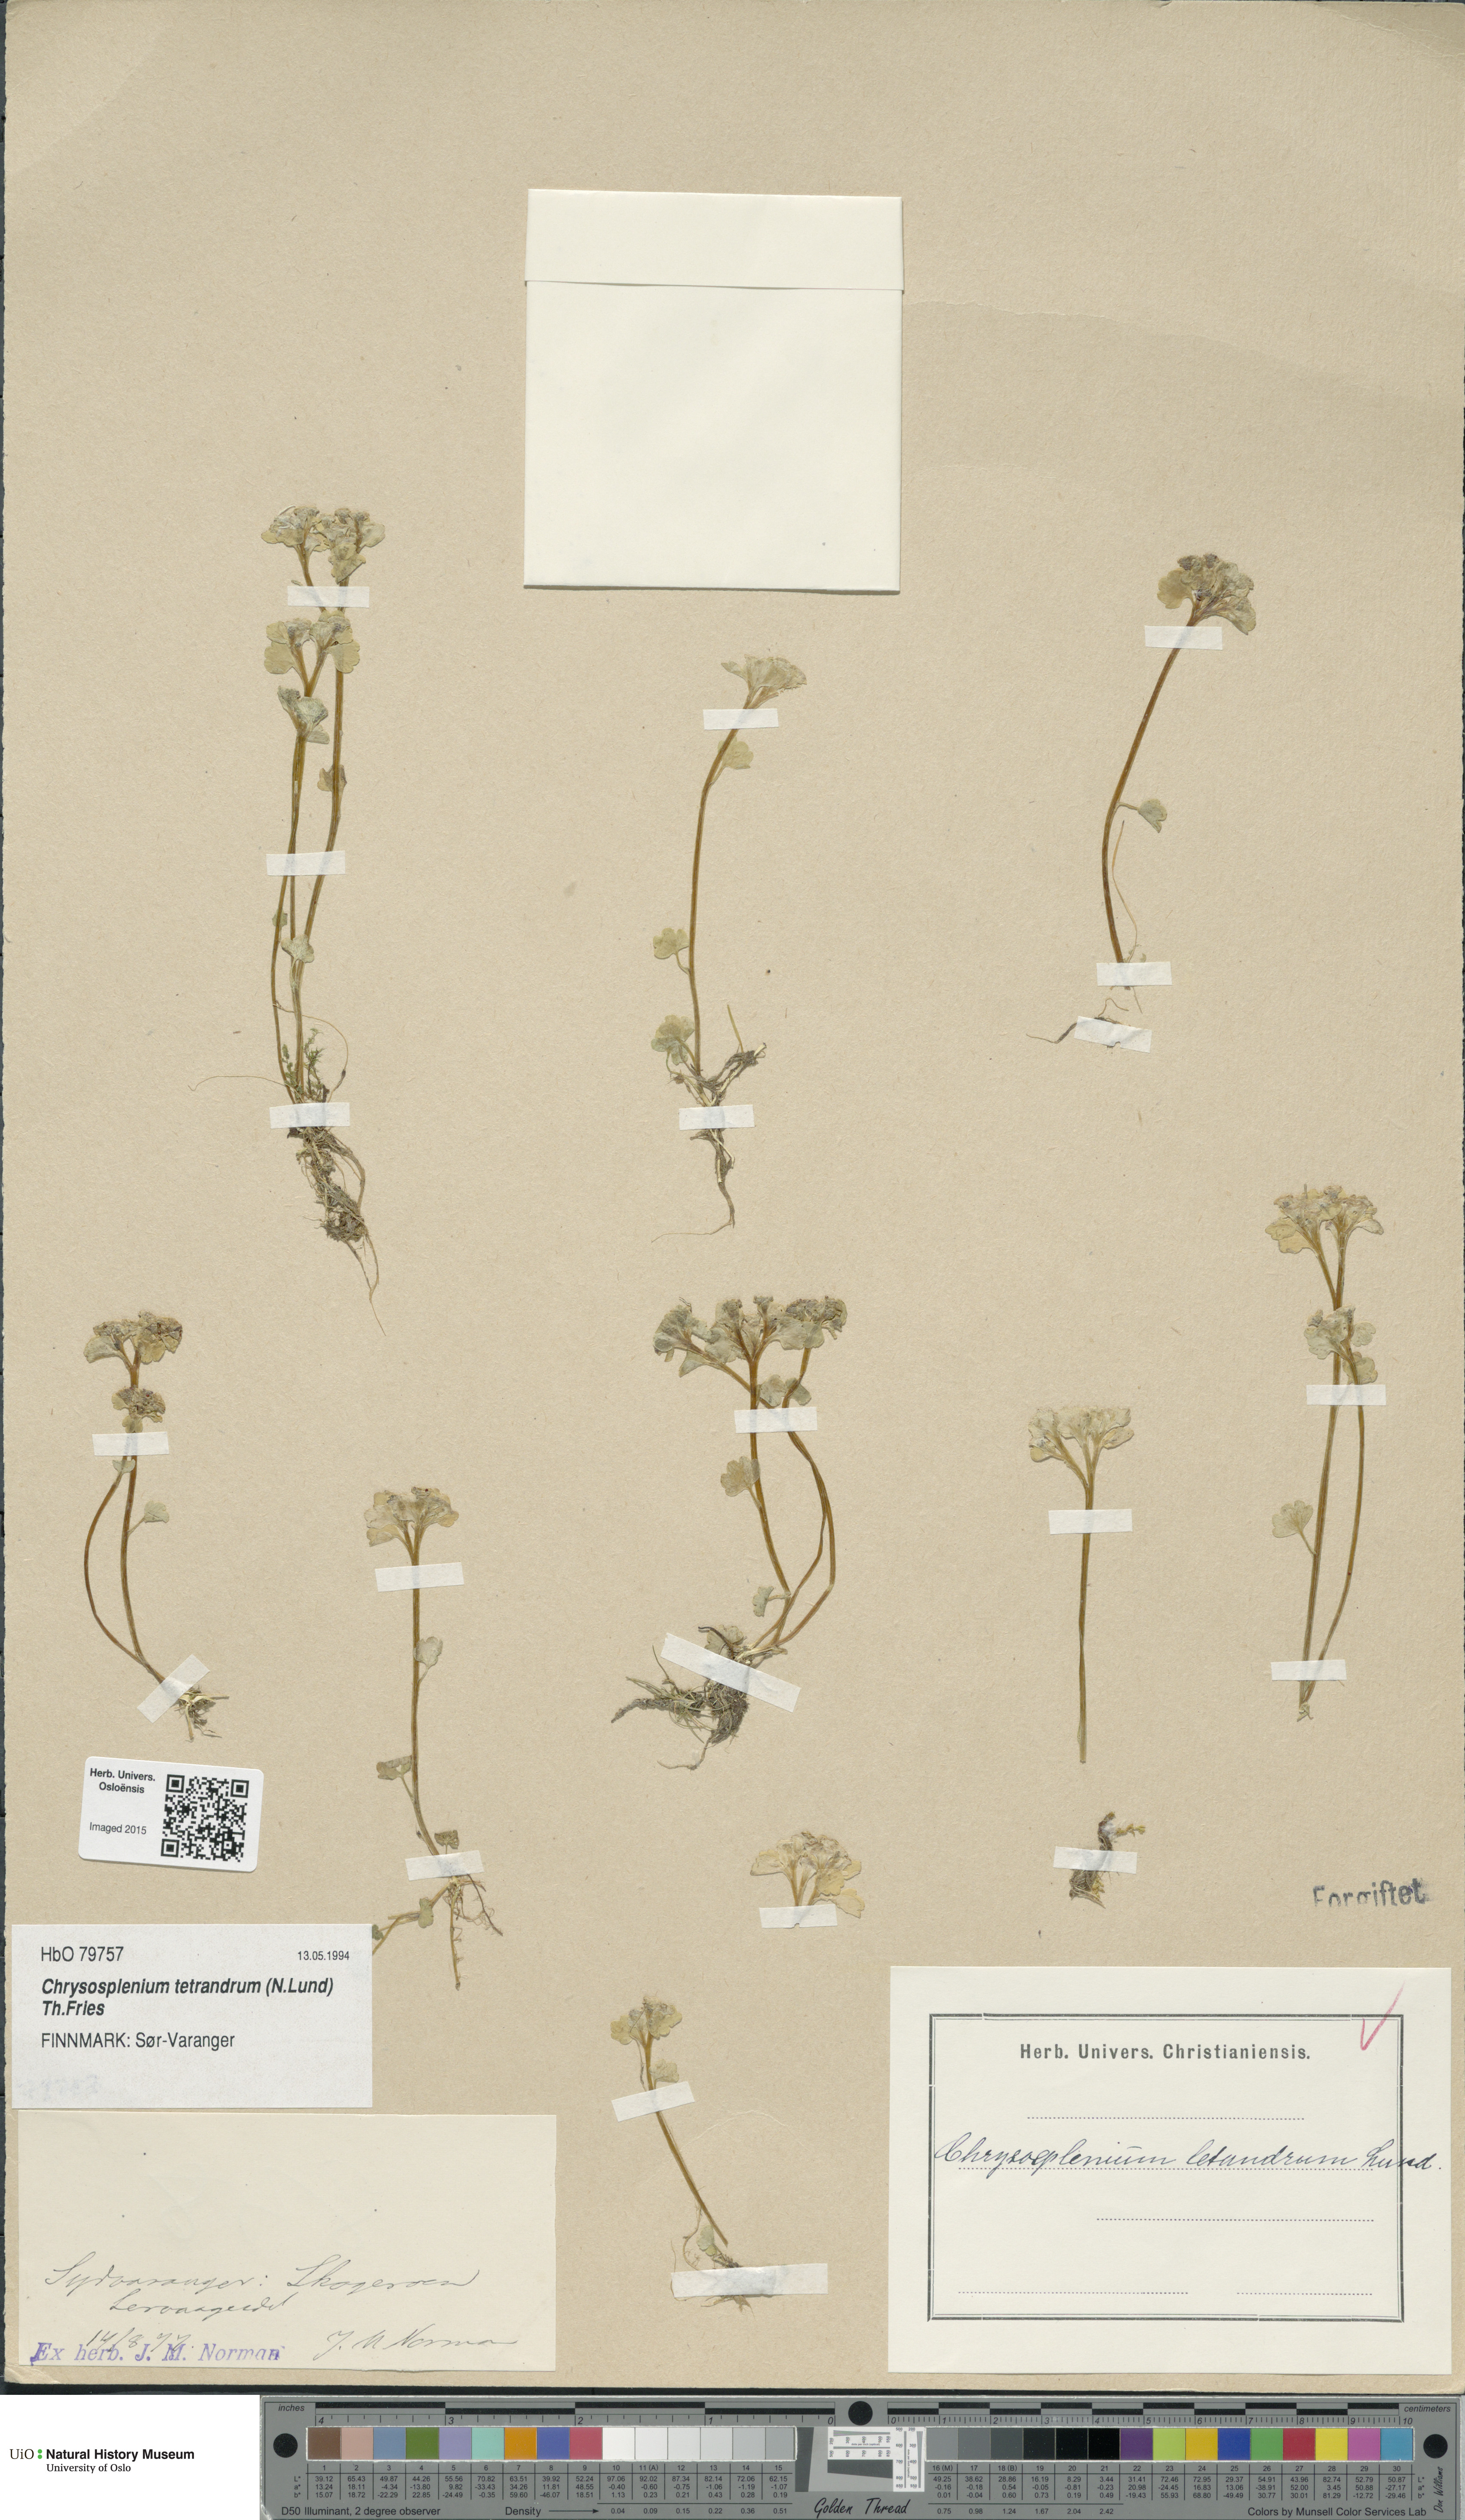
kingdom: Plantae
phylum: Tracheophyta
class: Magnoliopsida
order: Saxifragales
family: Saxifragaceae
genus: Chrysosplenium
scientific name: Chrysosplenium tetrandrum
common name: Green saxifrage
